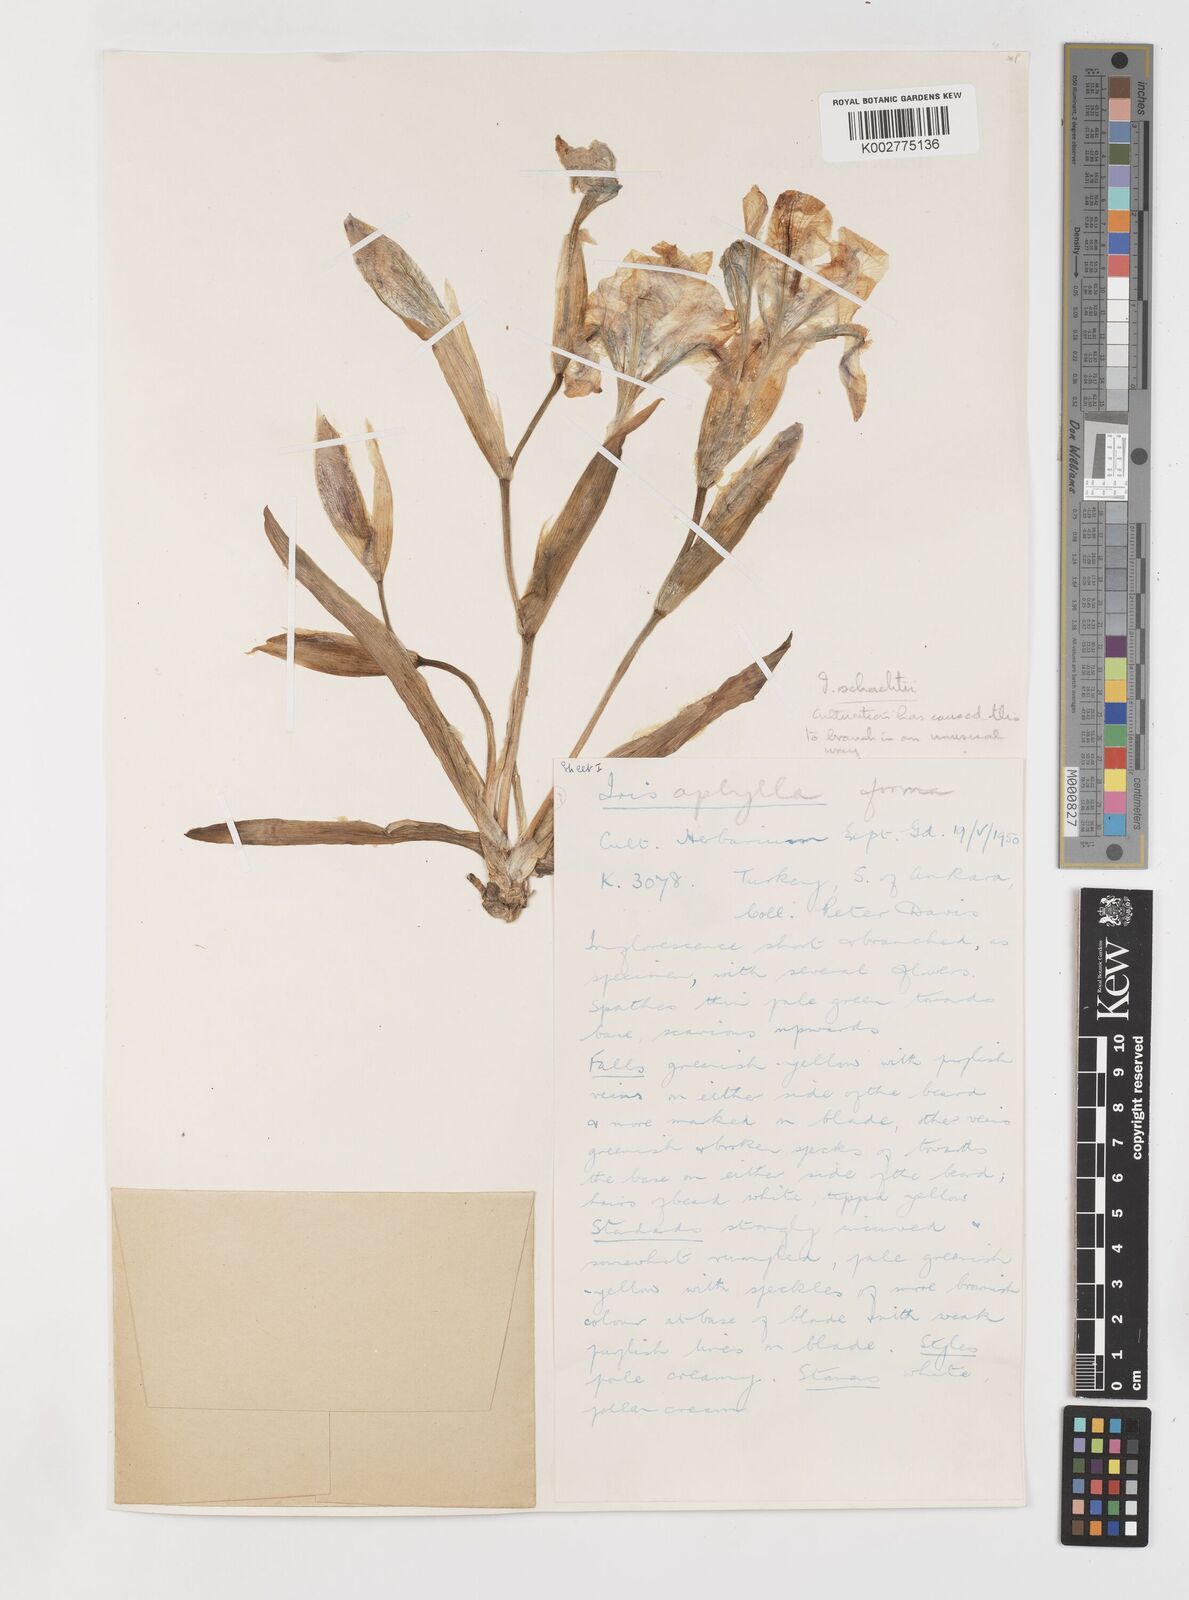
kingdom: Plantae
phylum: Tracheophyta
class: Liliopsida
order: Asparagales
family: Iridaceae
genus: Iris
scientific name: Iris schachtii
